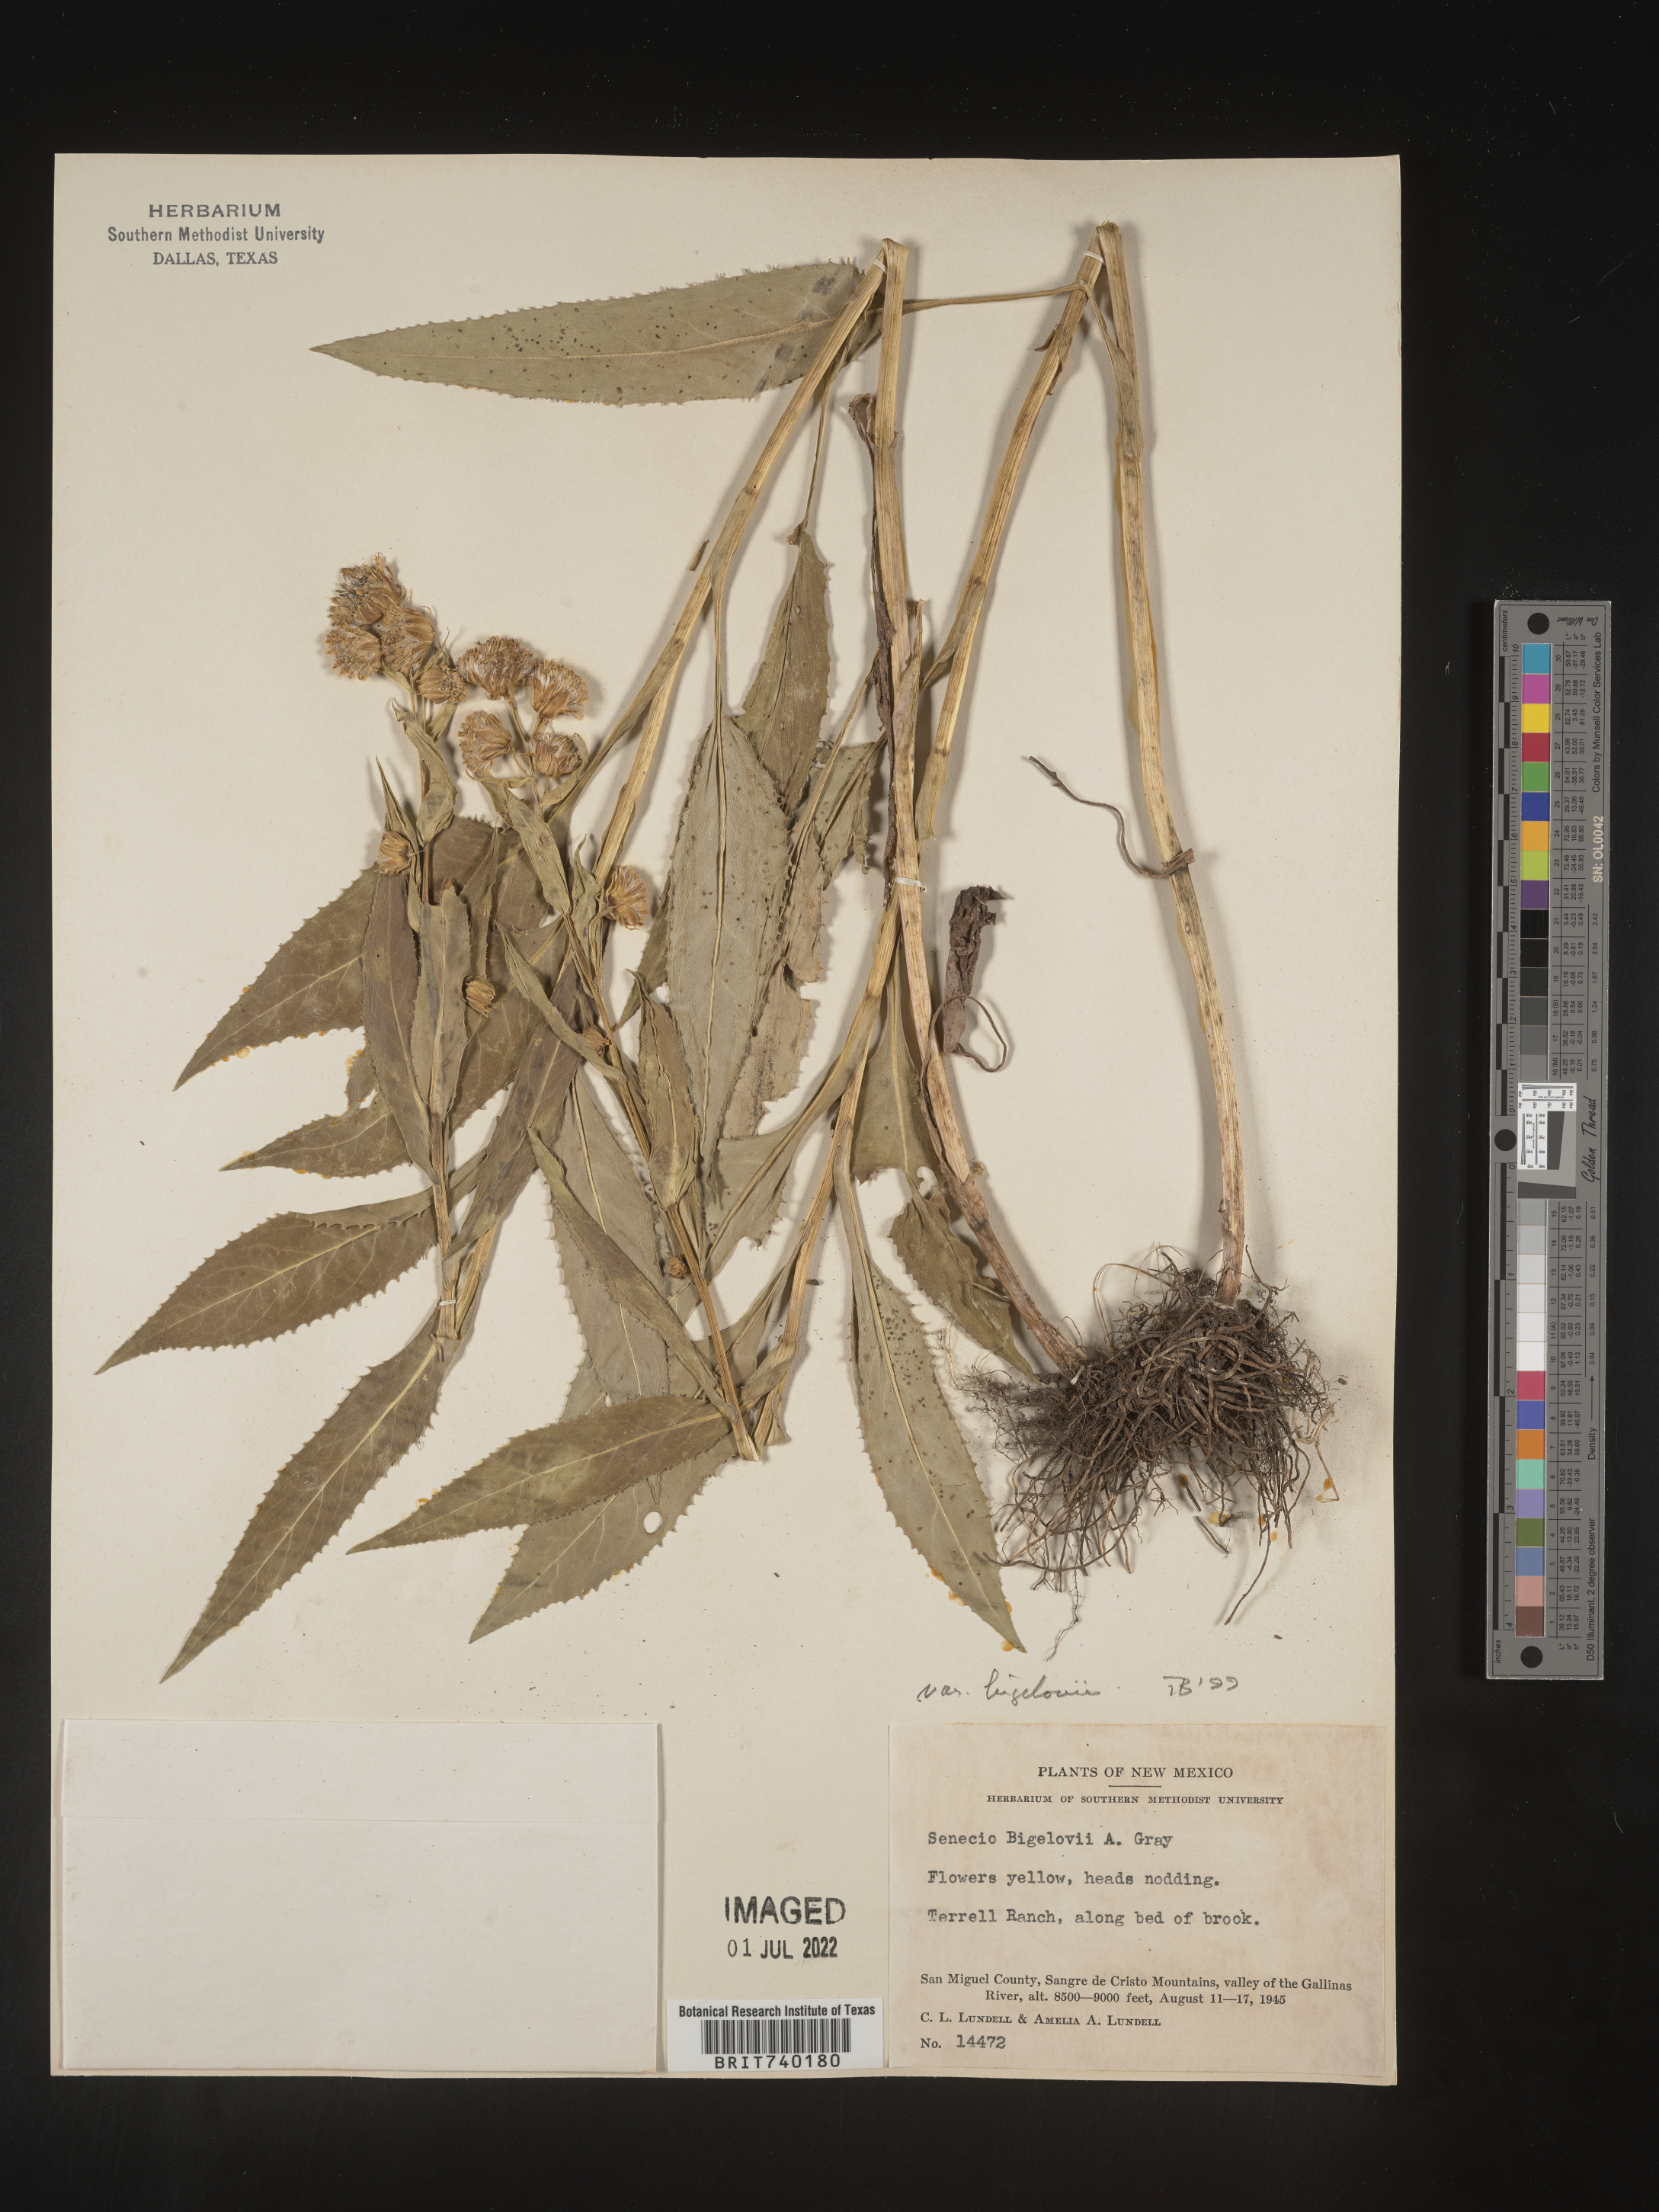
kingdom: Plantae
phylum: Tracheophyta
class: Magnoliopsida
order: Asterales
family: Asteraceae
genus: Senecio
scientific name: Senecio bigelovii
